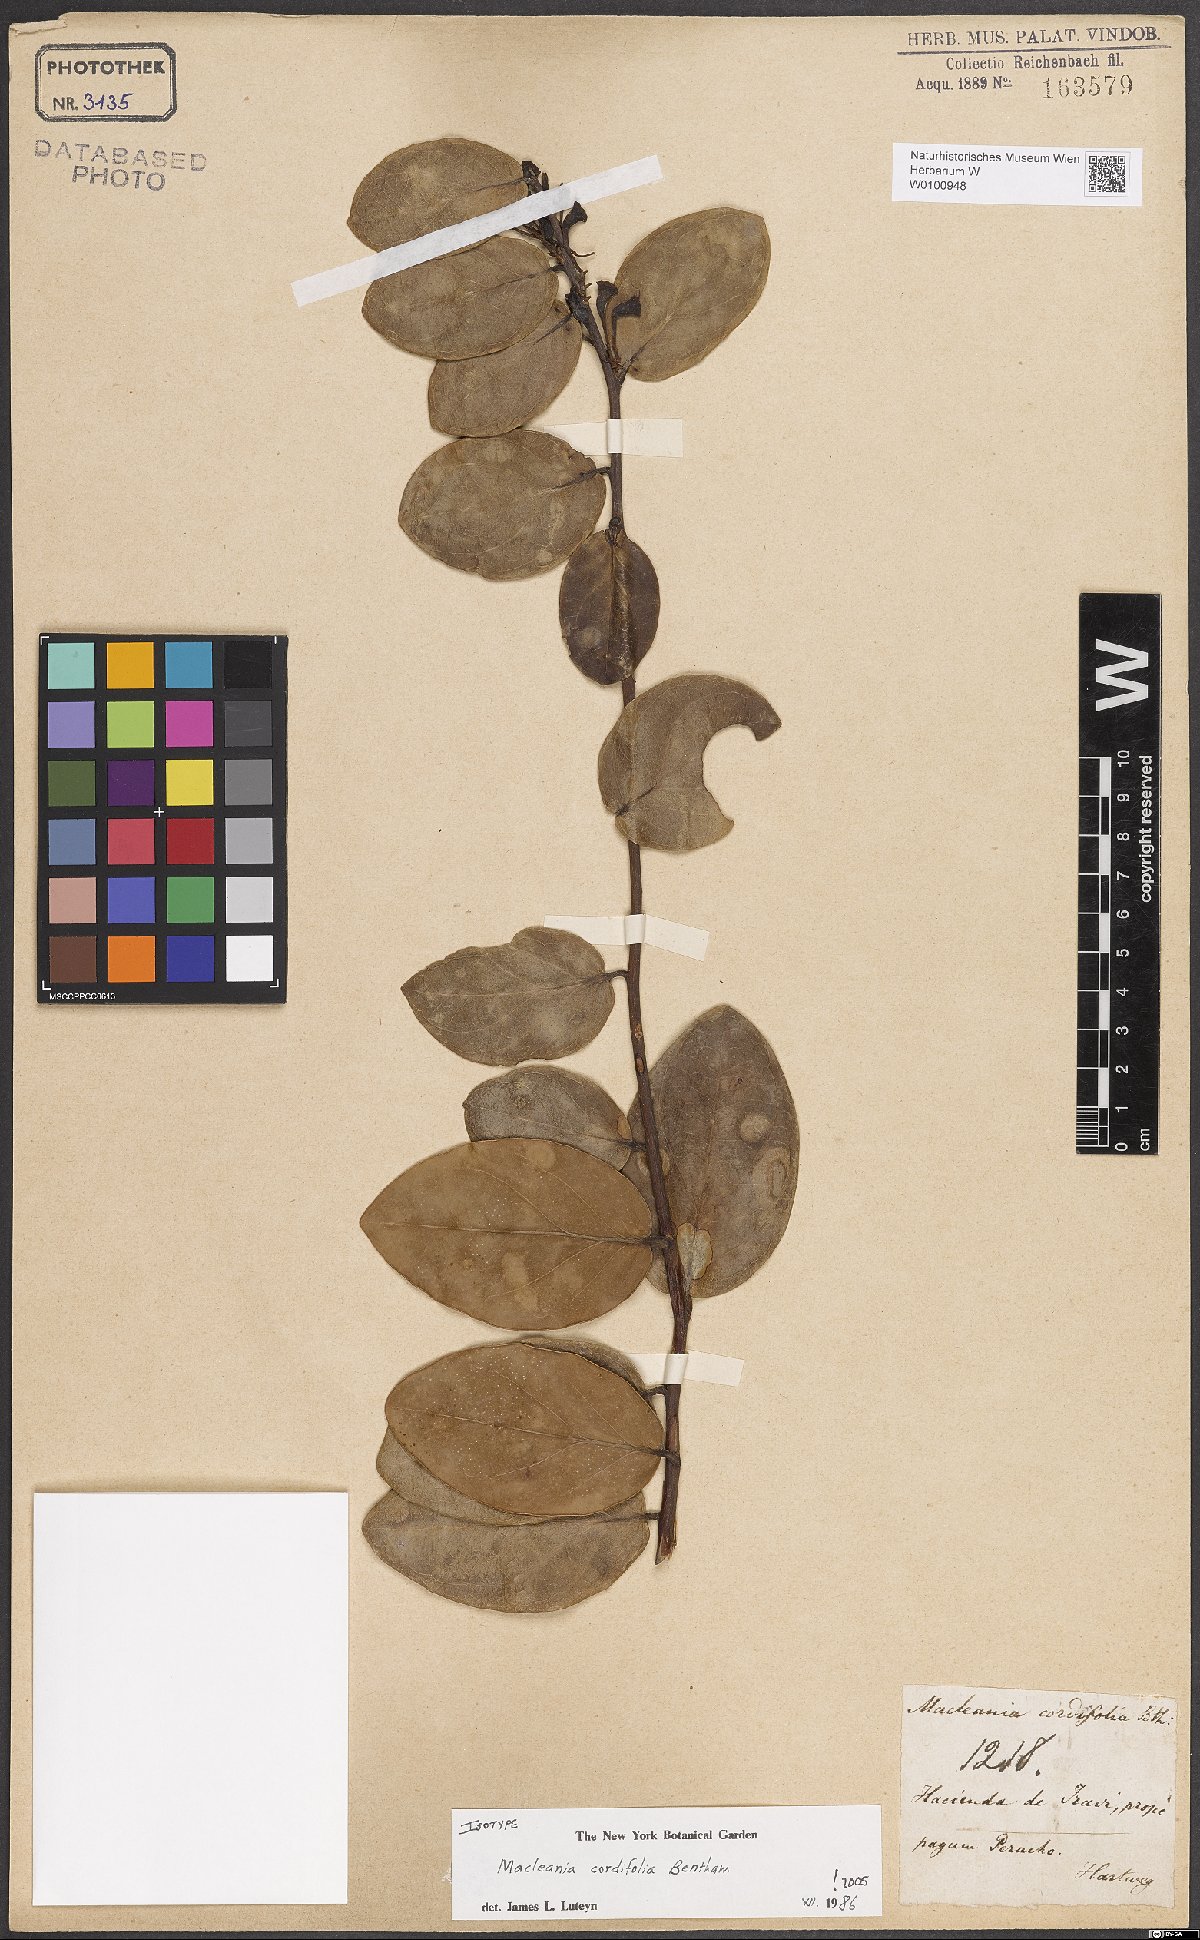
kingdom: Plantae
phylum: Tracheophyta
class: Magnoliopsida
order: Ericales
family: Ericaceae
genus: Macleania
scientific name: Macleania cordifolia
